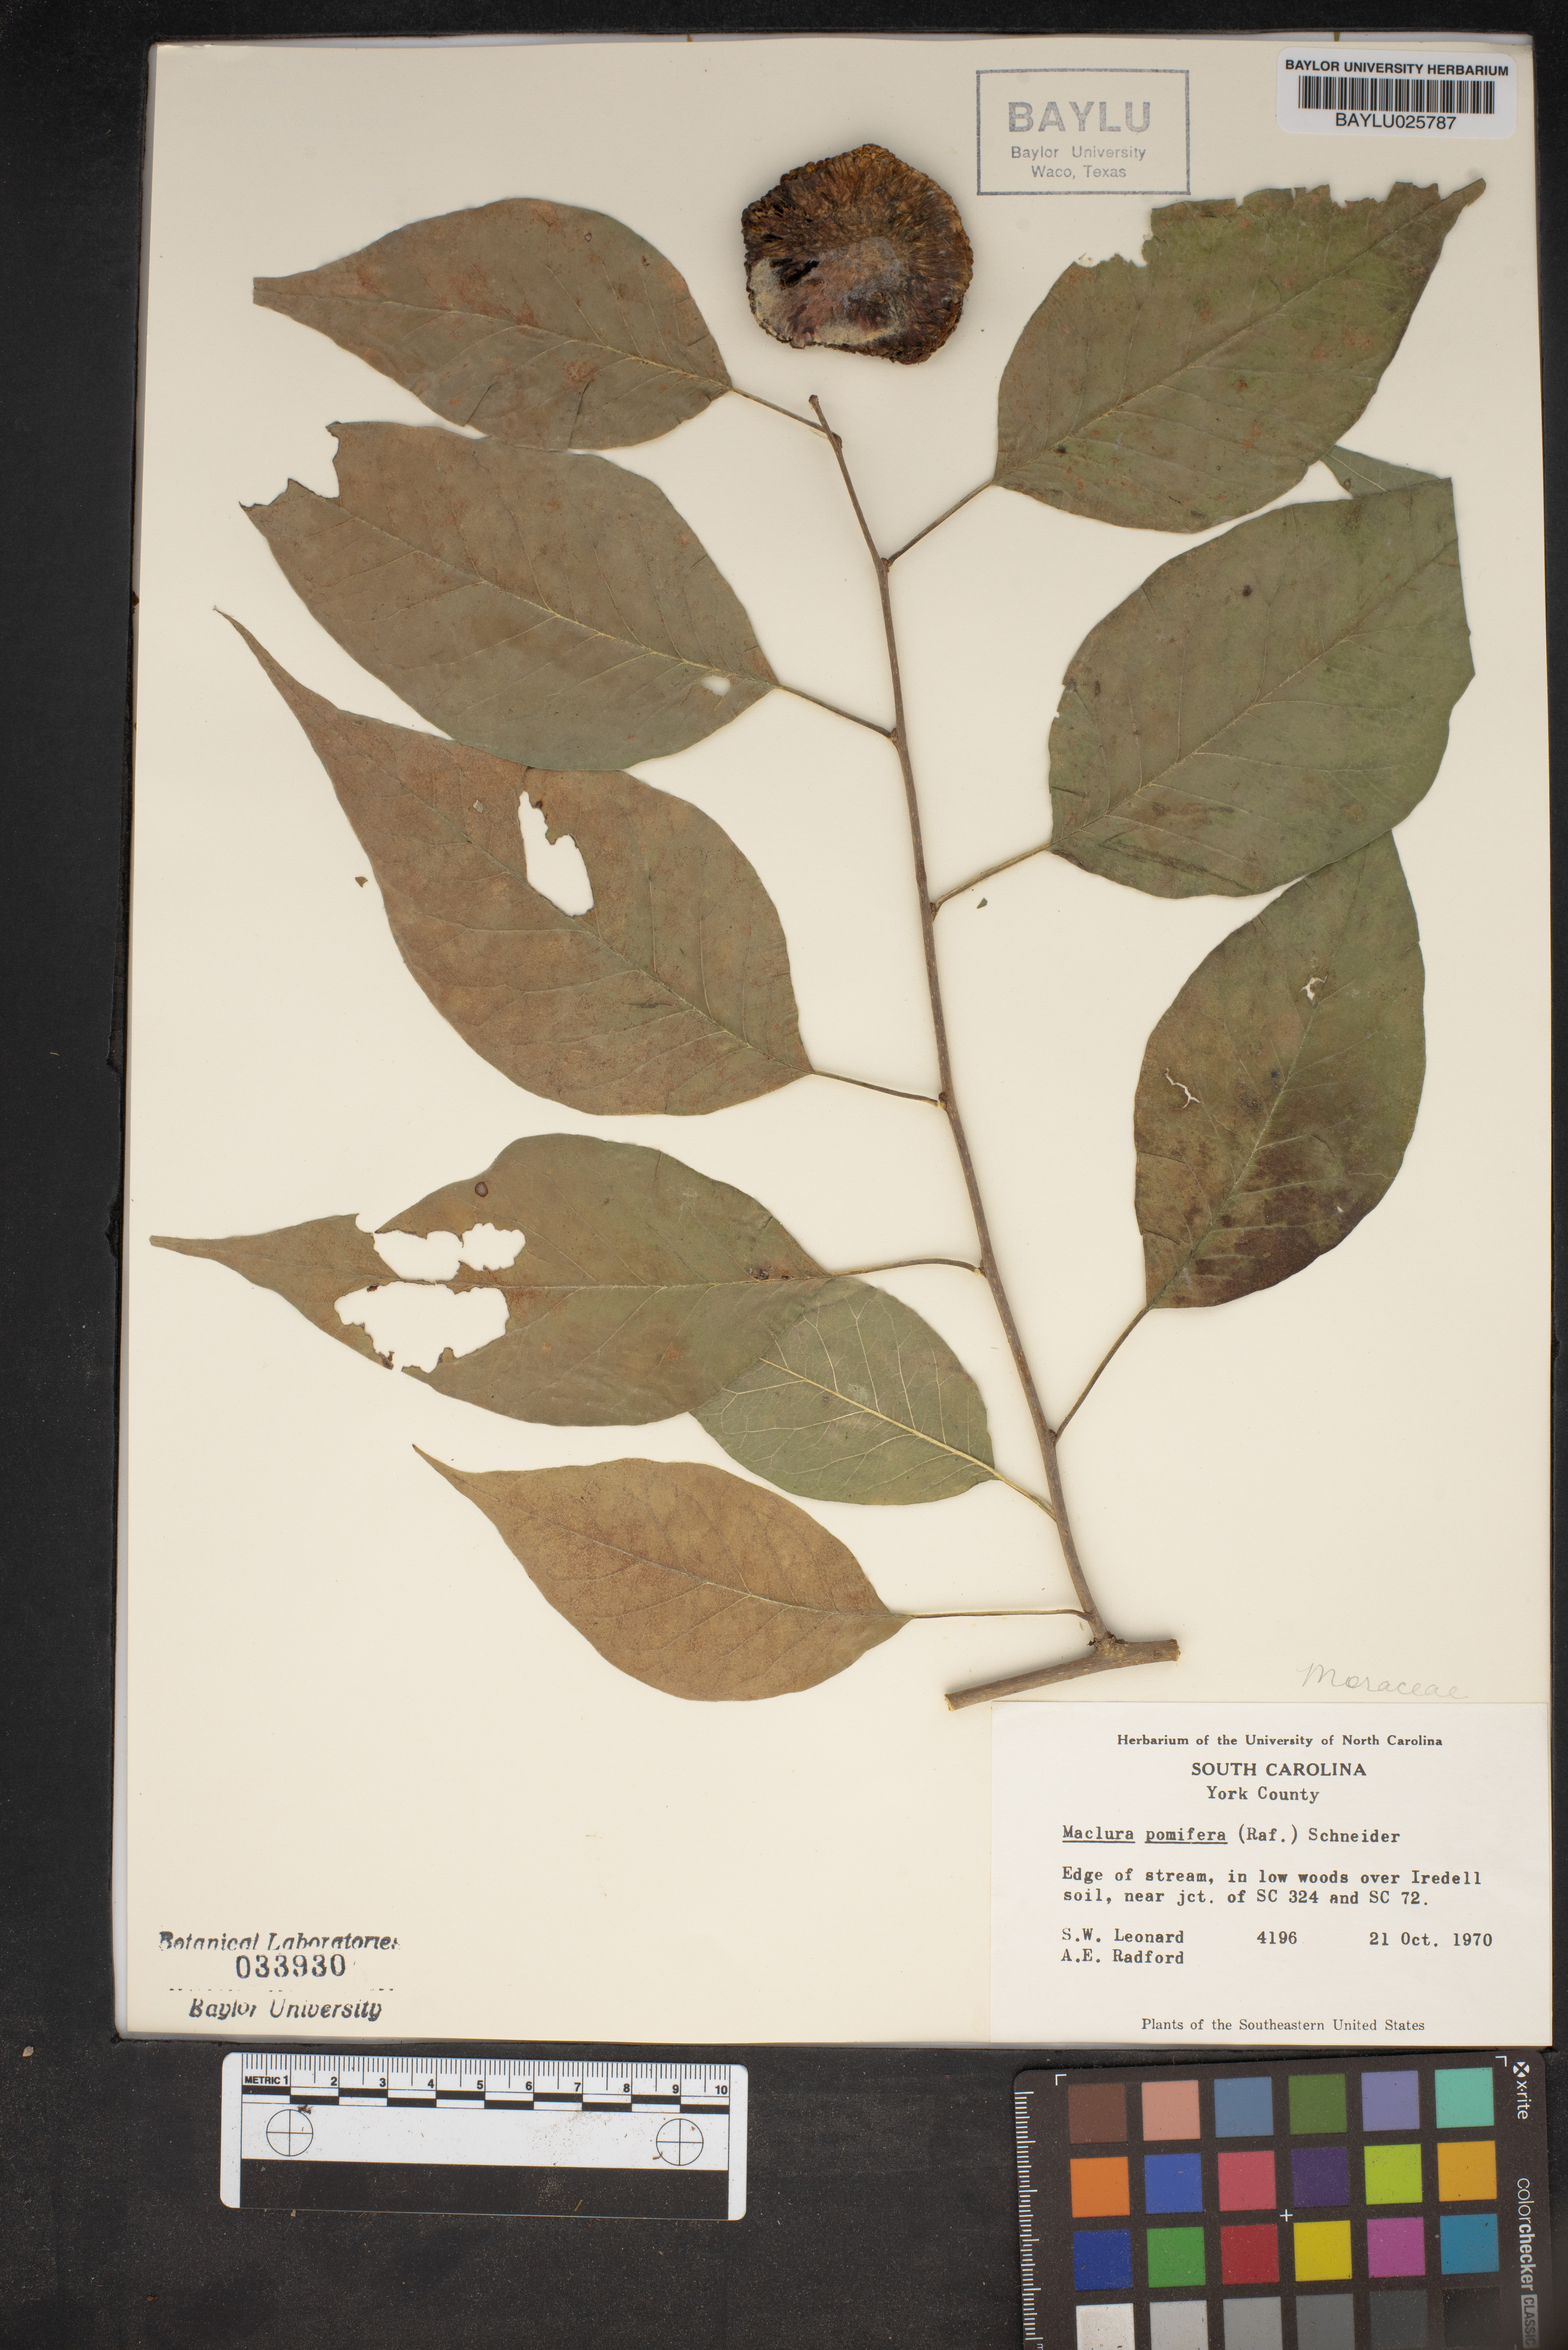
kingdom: Plantae
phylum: Tracheophyta
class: Magnoliopsida
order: Rosales
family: Moraceae
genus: Maclura
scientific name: Maclura pomifera
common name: Osage-orange
